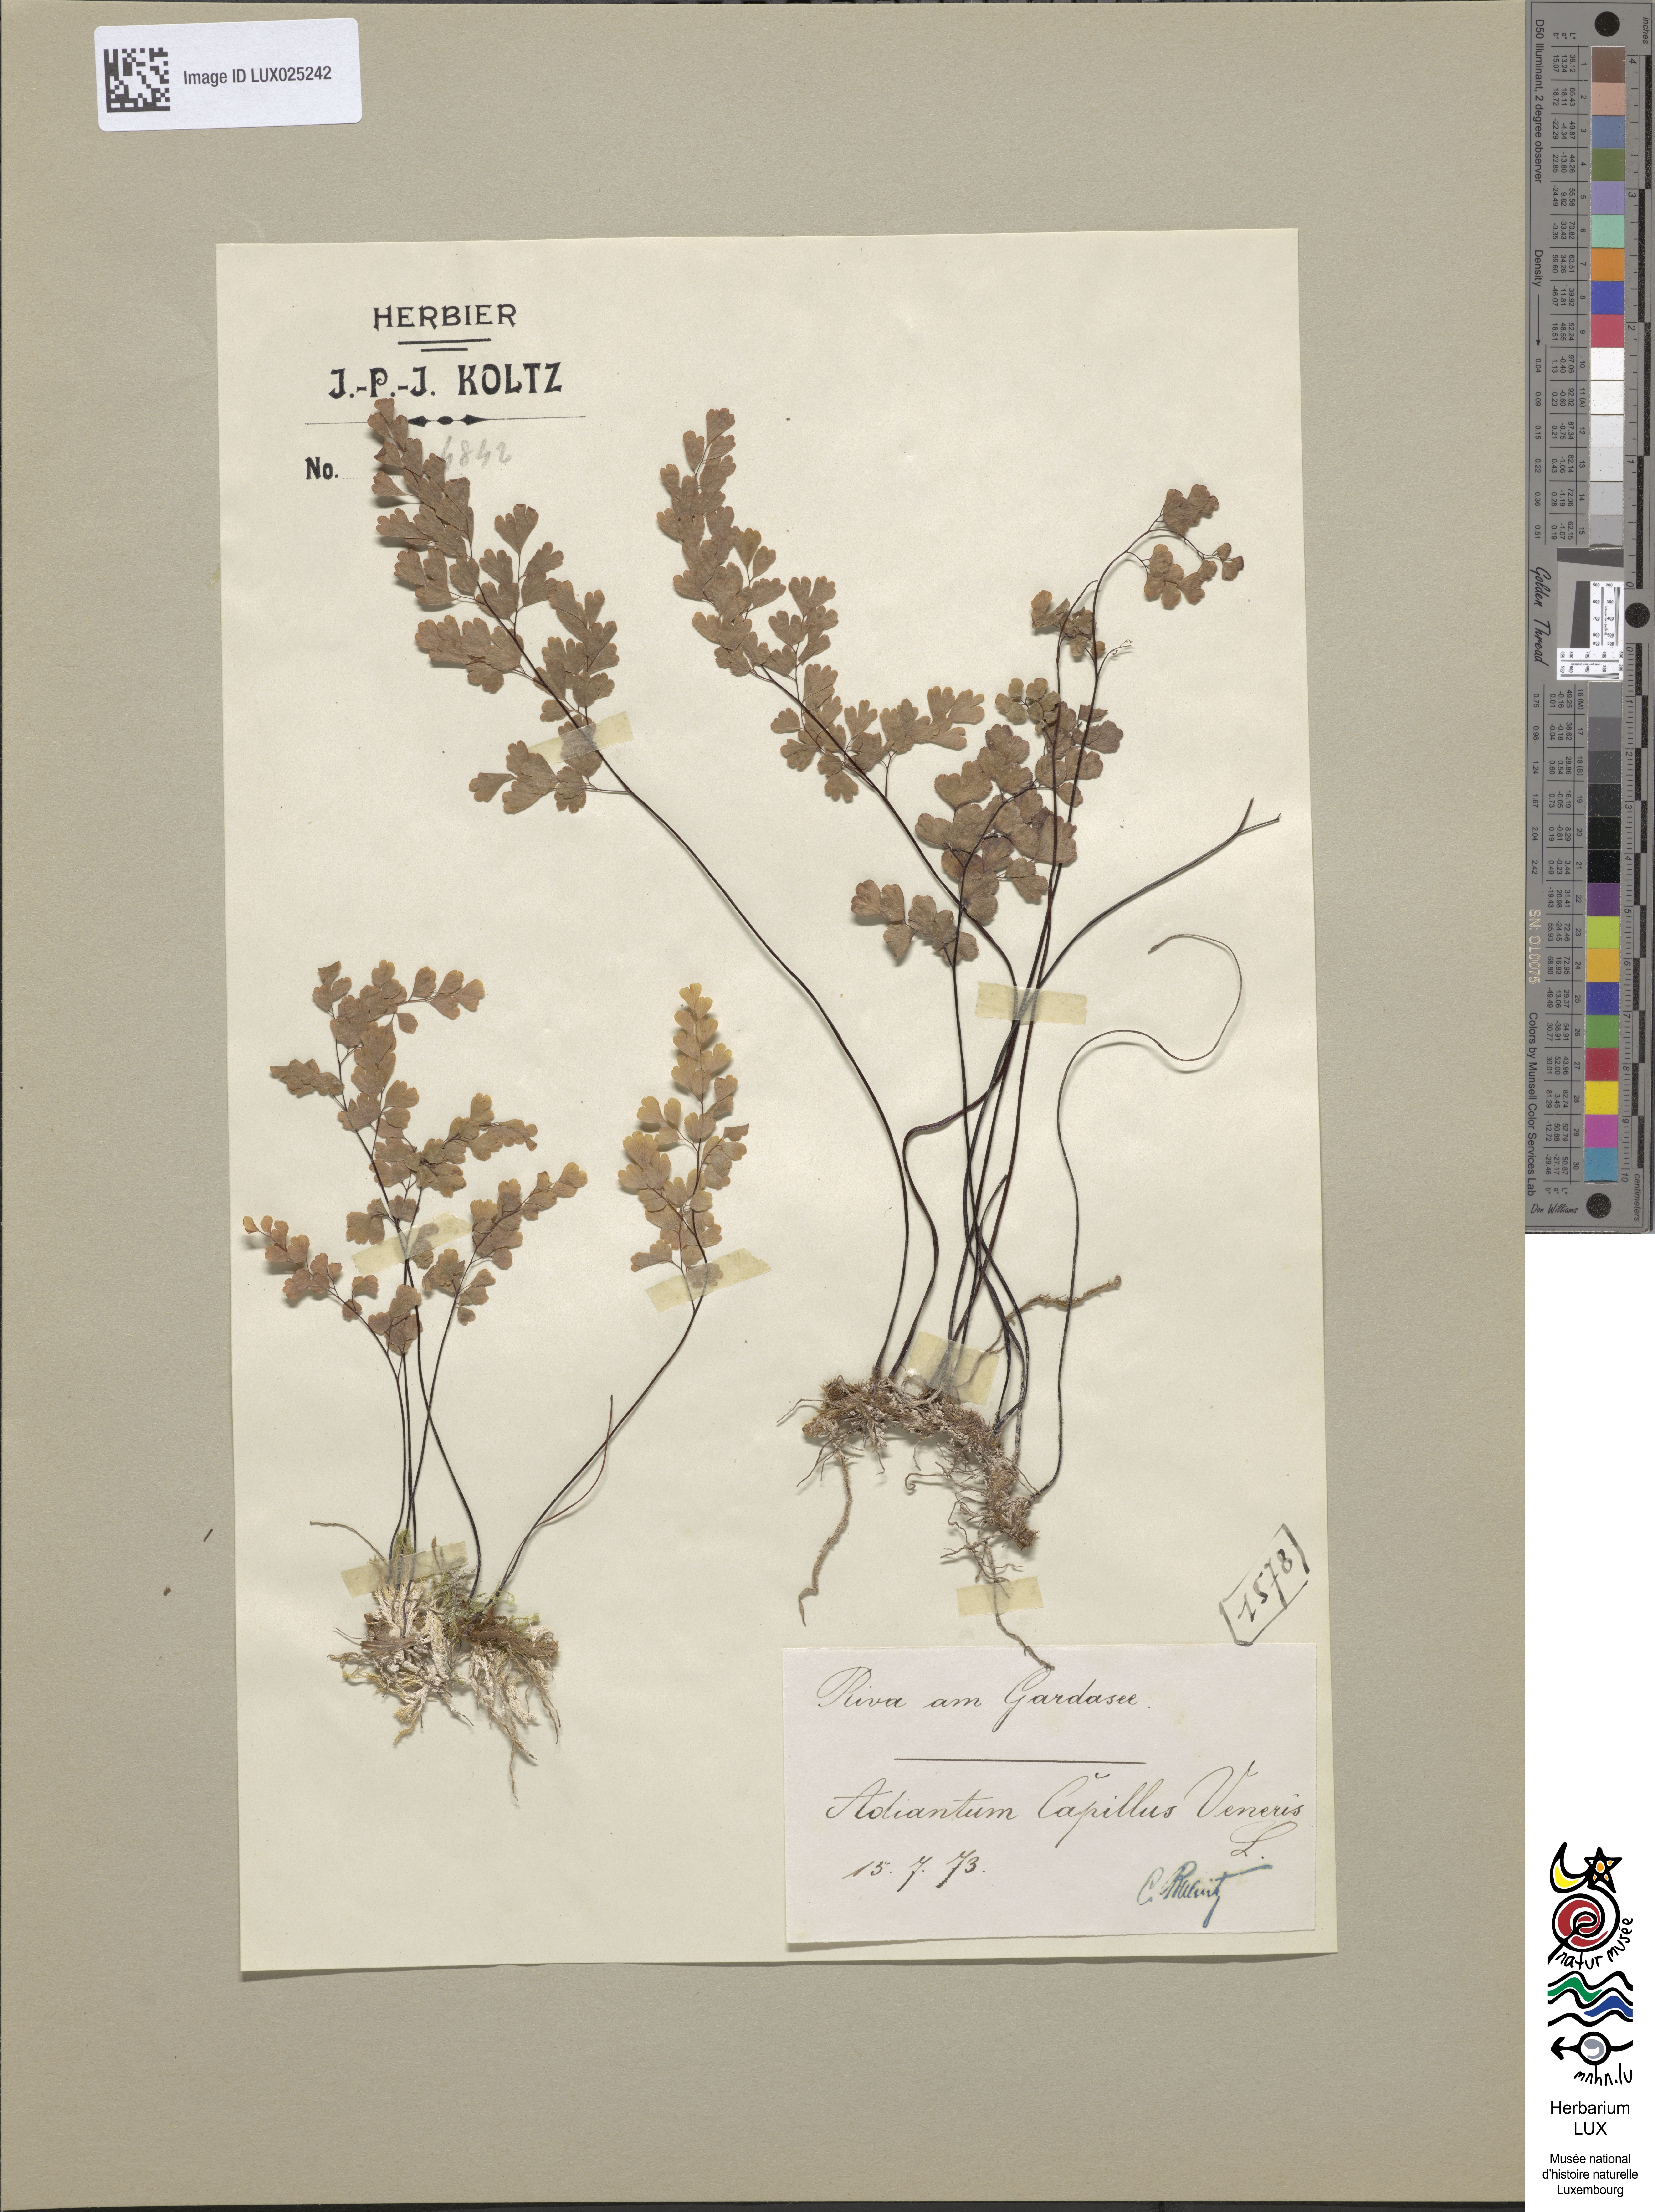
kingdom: Plantae
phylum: Tracheophyta
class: Polypodiopsida
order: Polypodiales
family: Pteridaceae
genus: Adiantum
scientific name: Adiantum capillus-veneris
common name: Maidenhair fern
